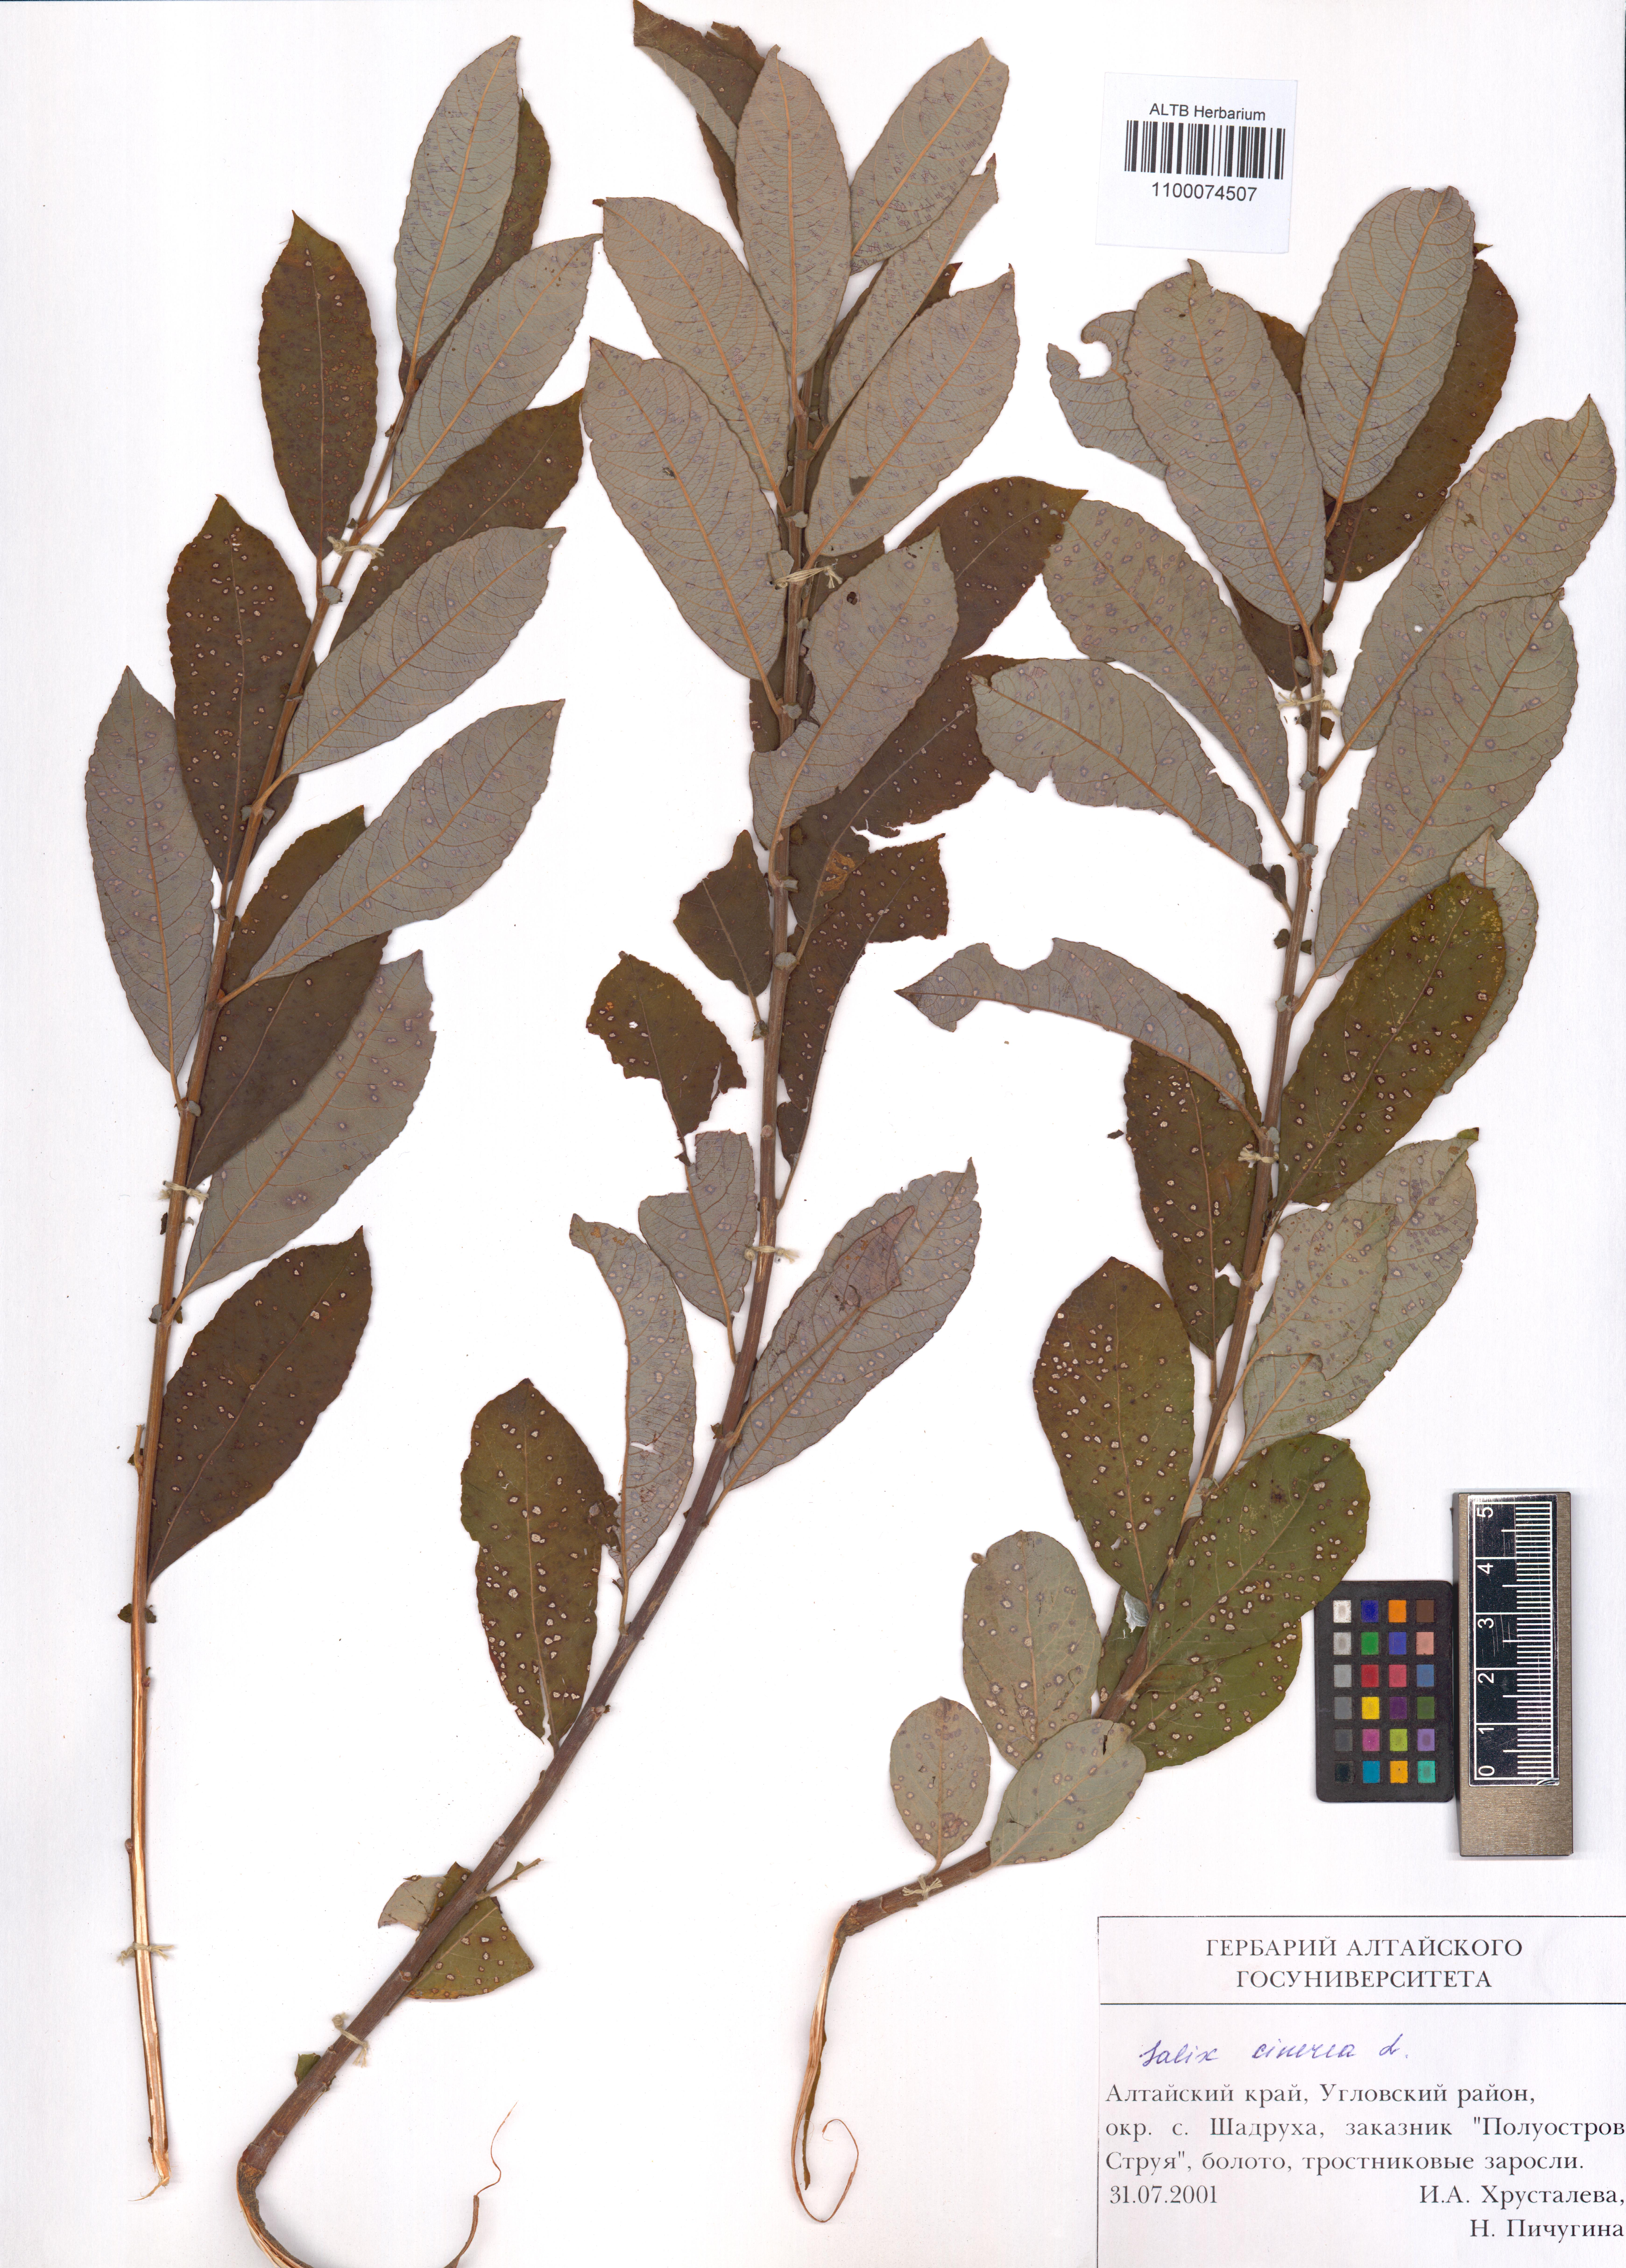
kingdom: Plantae
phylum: Tracheophyta
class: Magnoliopsida
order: Malpighiales
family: Salicaceae
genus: Salix
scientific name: Salix cinerea
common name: Common sallow
